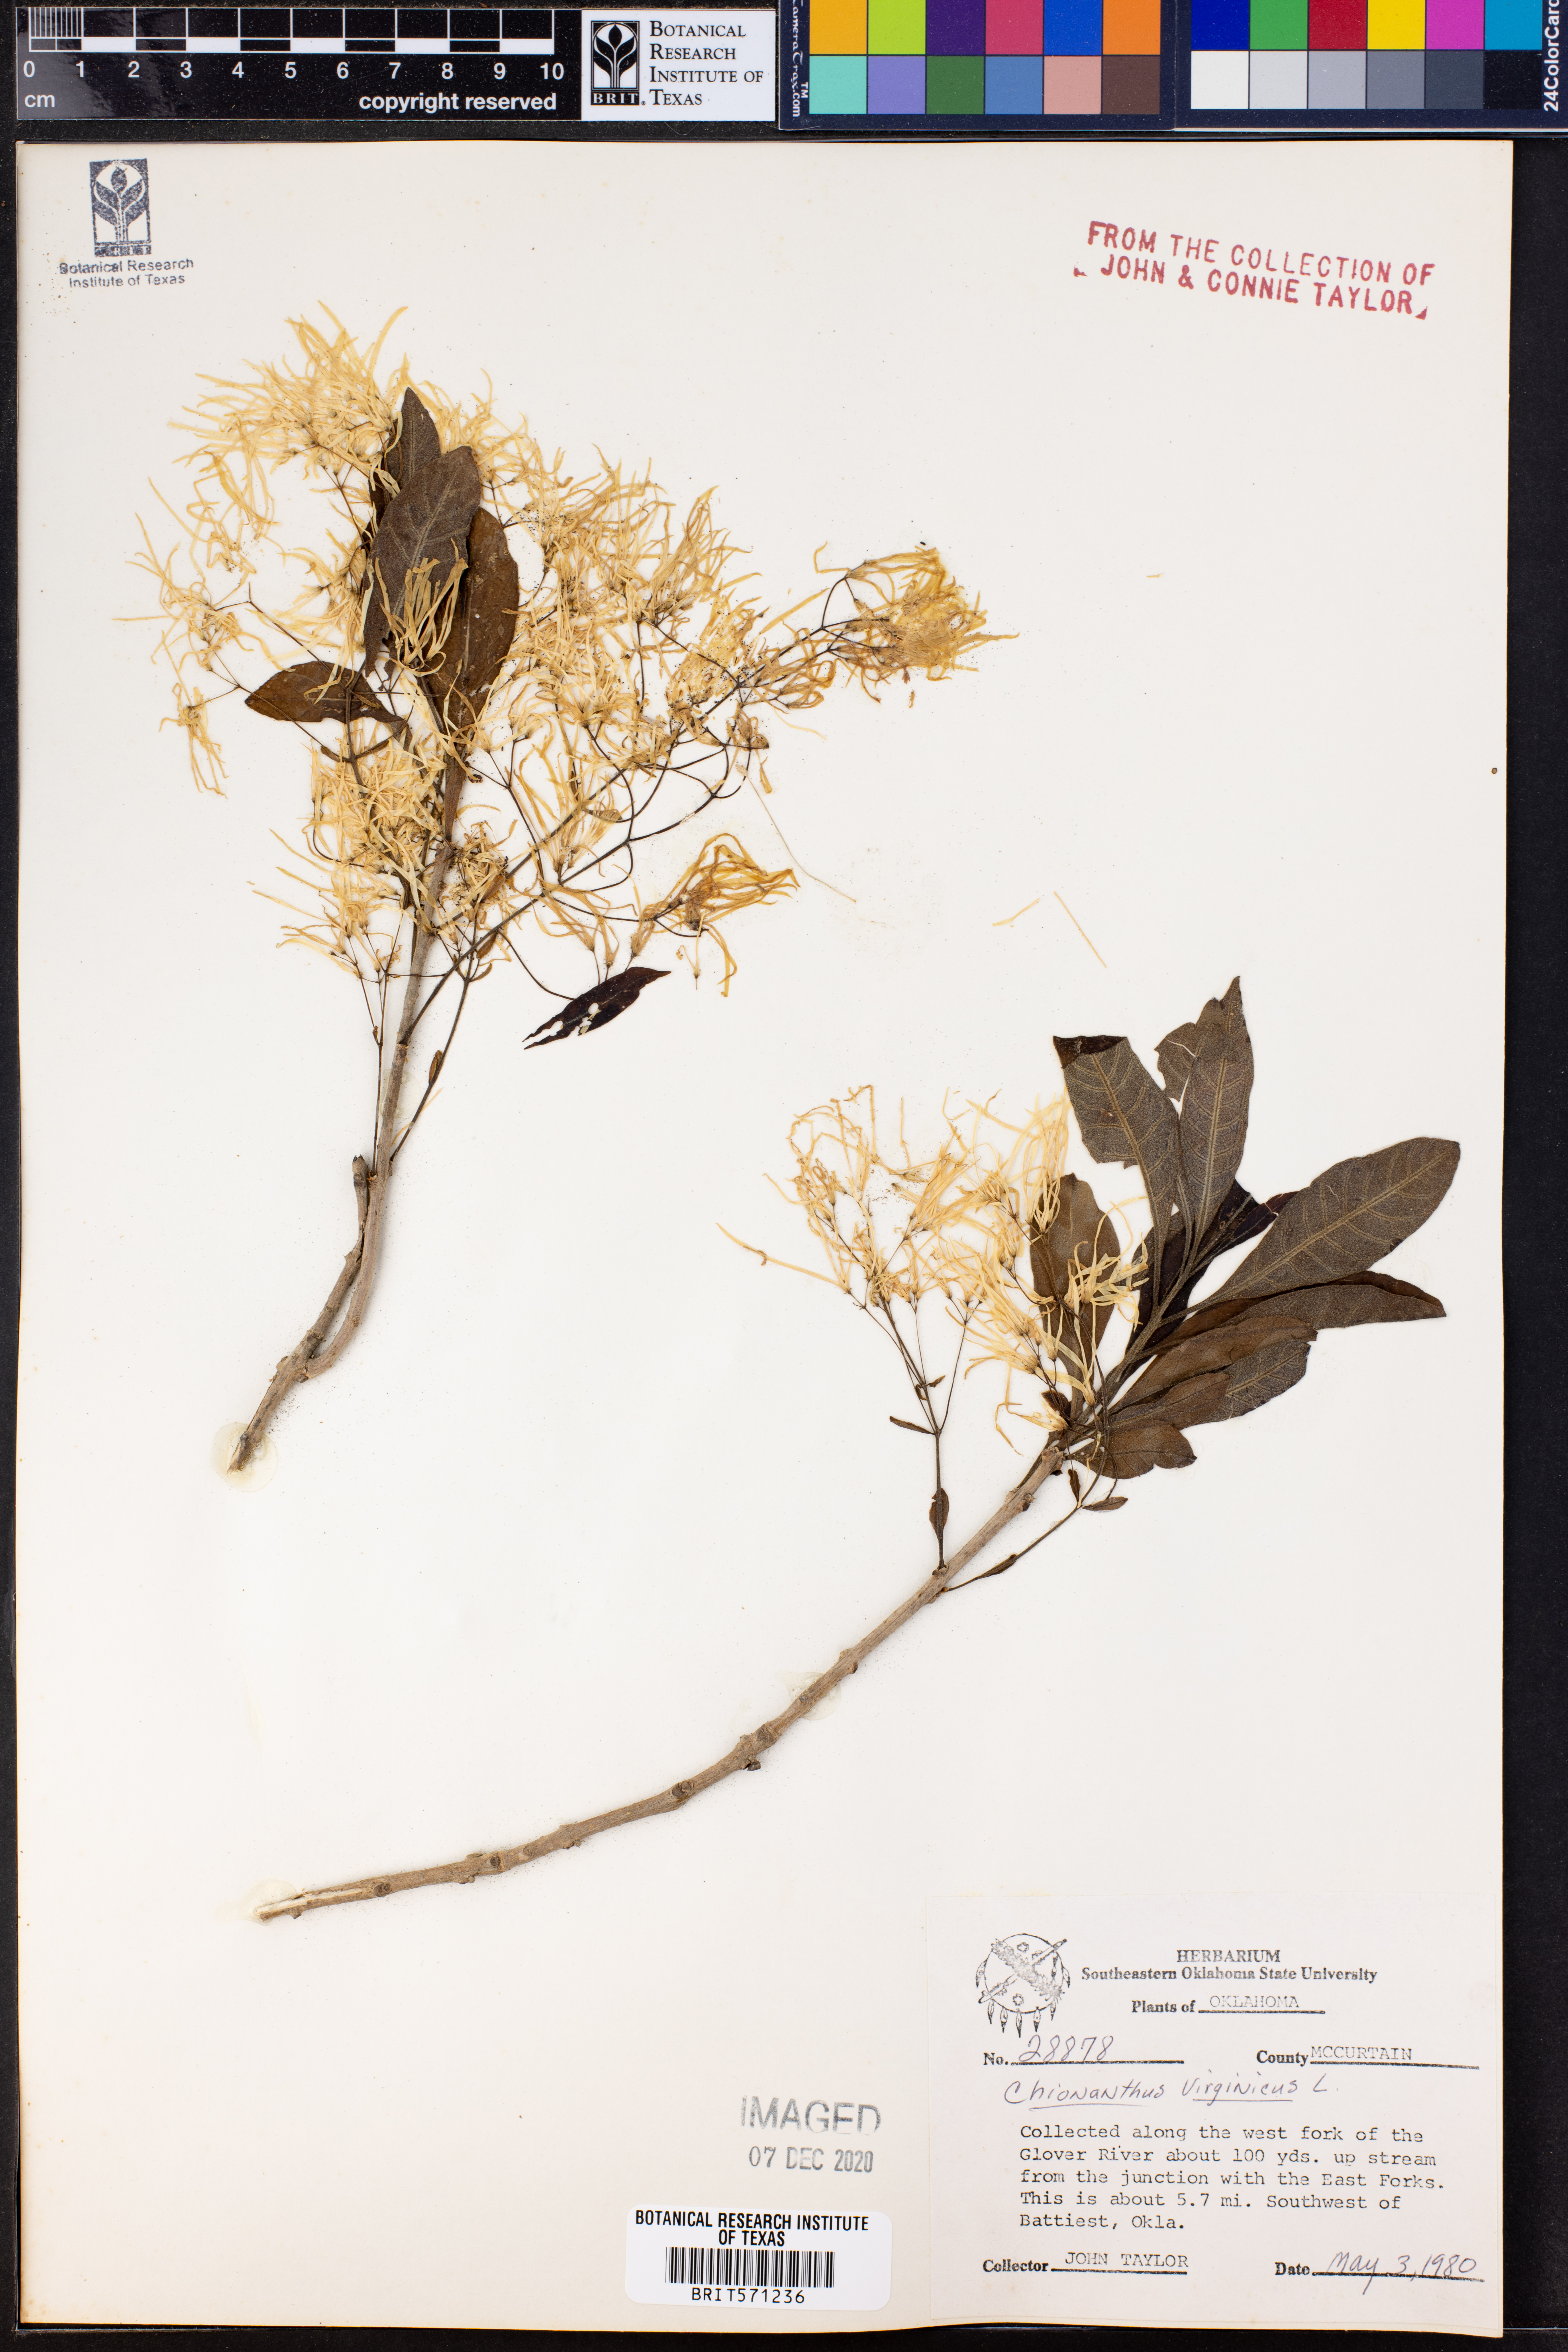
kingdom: Plantae
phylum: Tracheophyta
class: Magnoliopsida
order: Lamiales
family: Oleaceae
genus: Chionanthus
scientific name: Chionanthus virginicus
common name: American fringetree
